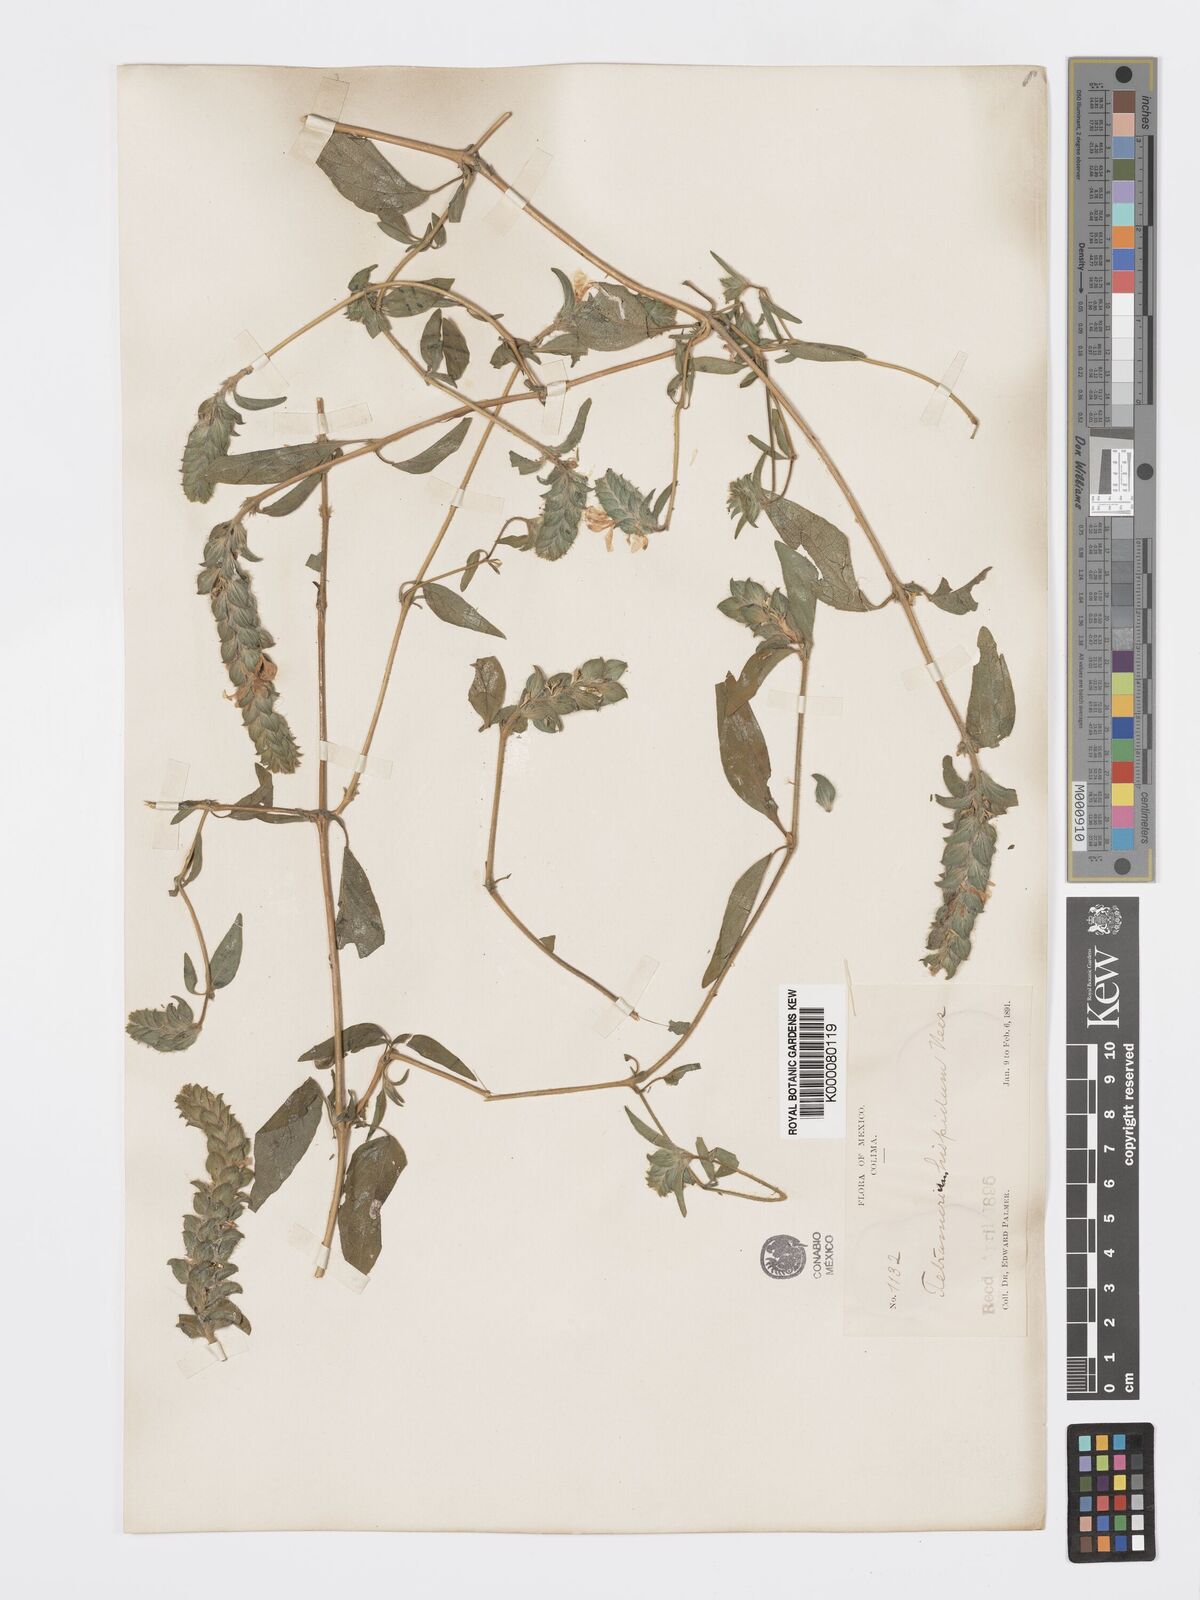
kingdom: Plantae
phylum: Tracheophyta
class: Magnoliopsida
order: Lamiales
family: Acanthaceae
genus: Tetramerium
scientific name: Tetramerium nervosum
